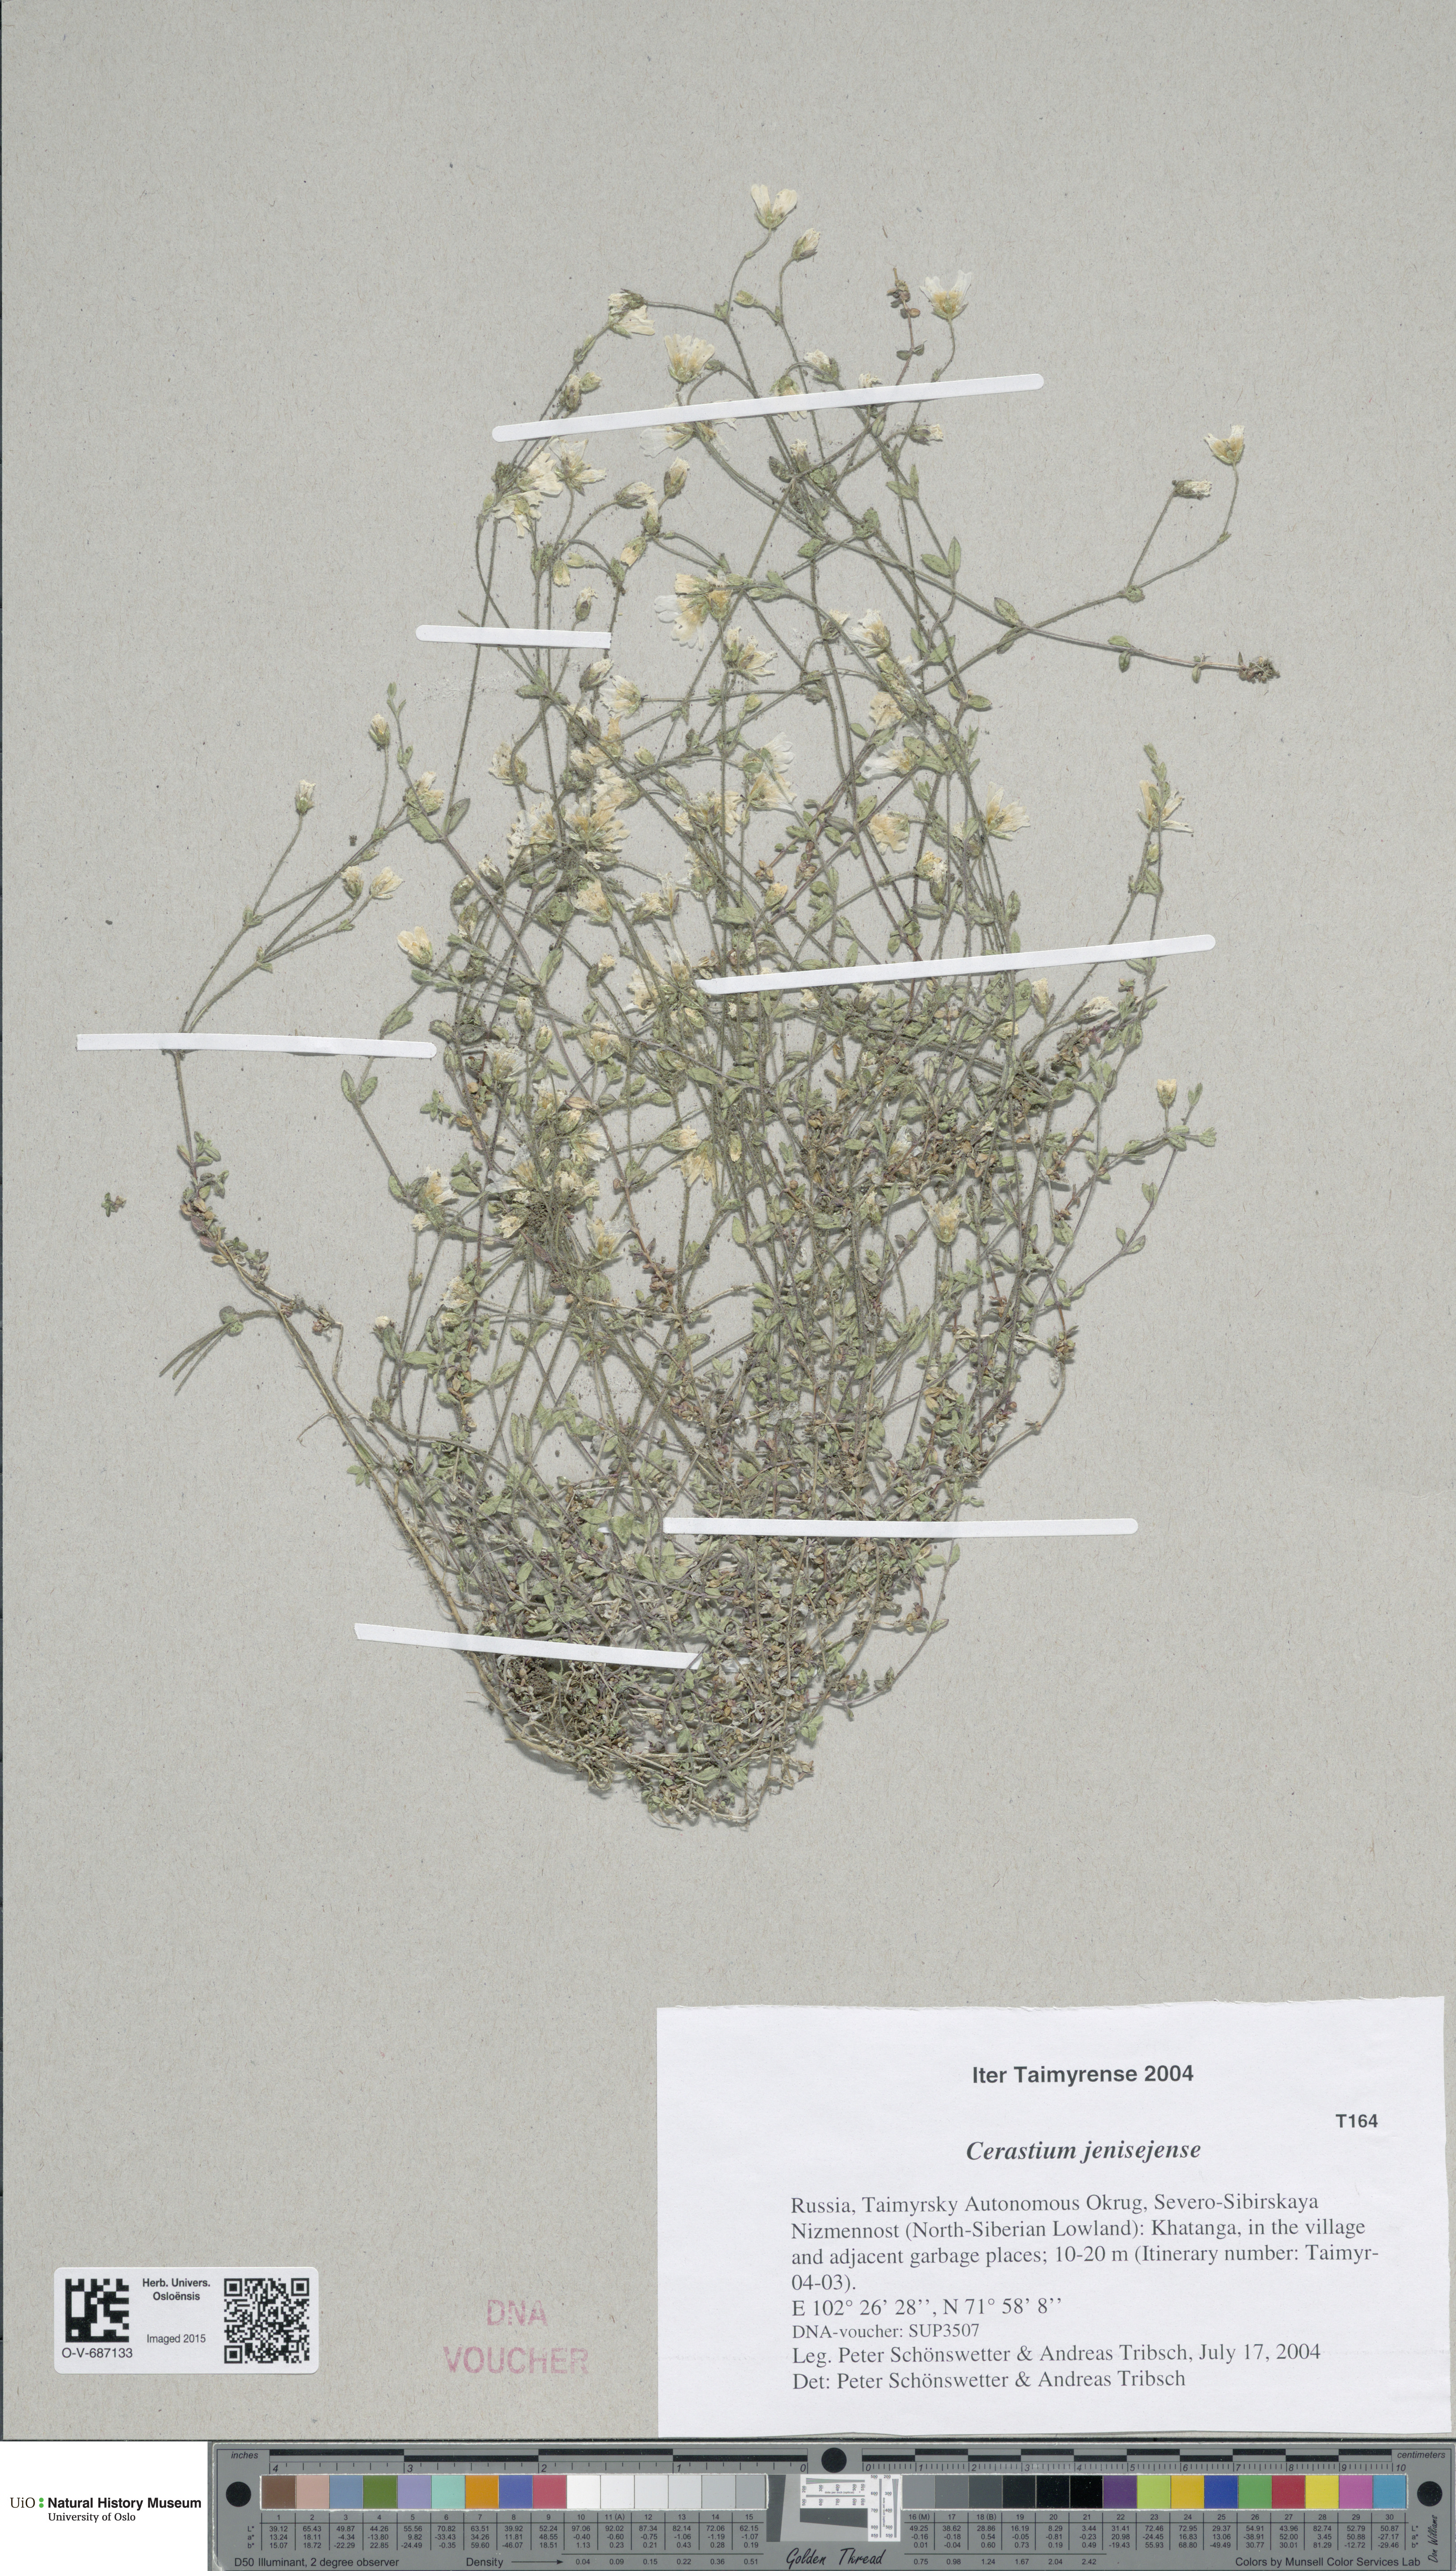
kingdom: Plantae
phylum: Tracheophyta
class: Magnoliopsida
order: Caryophyllales
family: Caryophyllaceae
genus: Cerastium
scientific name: Cerastium regelii
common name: Regel's chickweed
